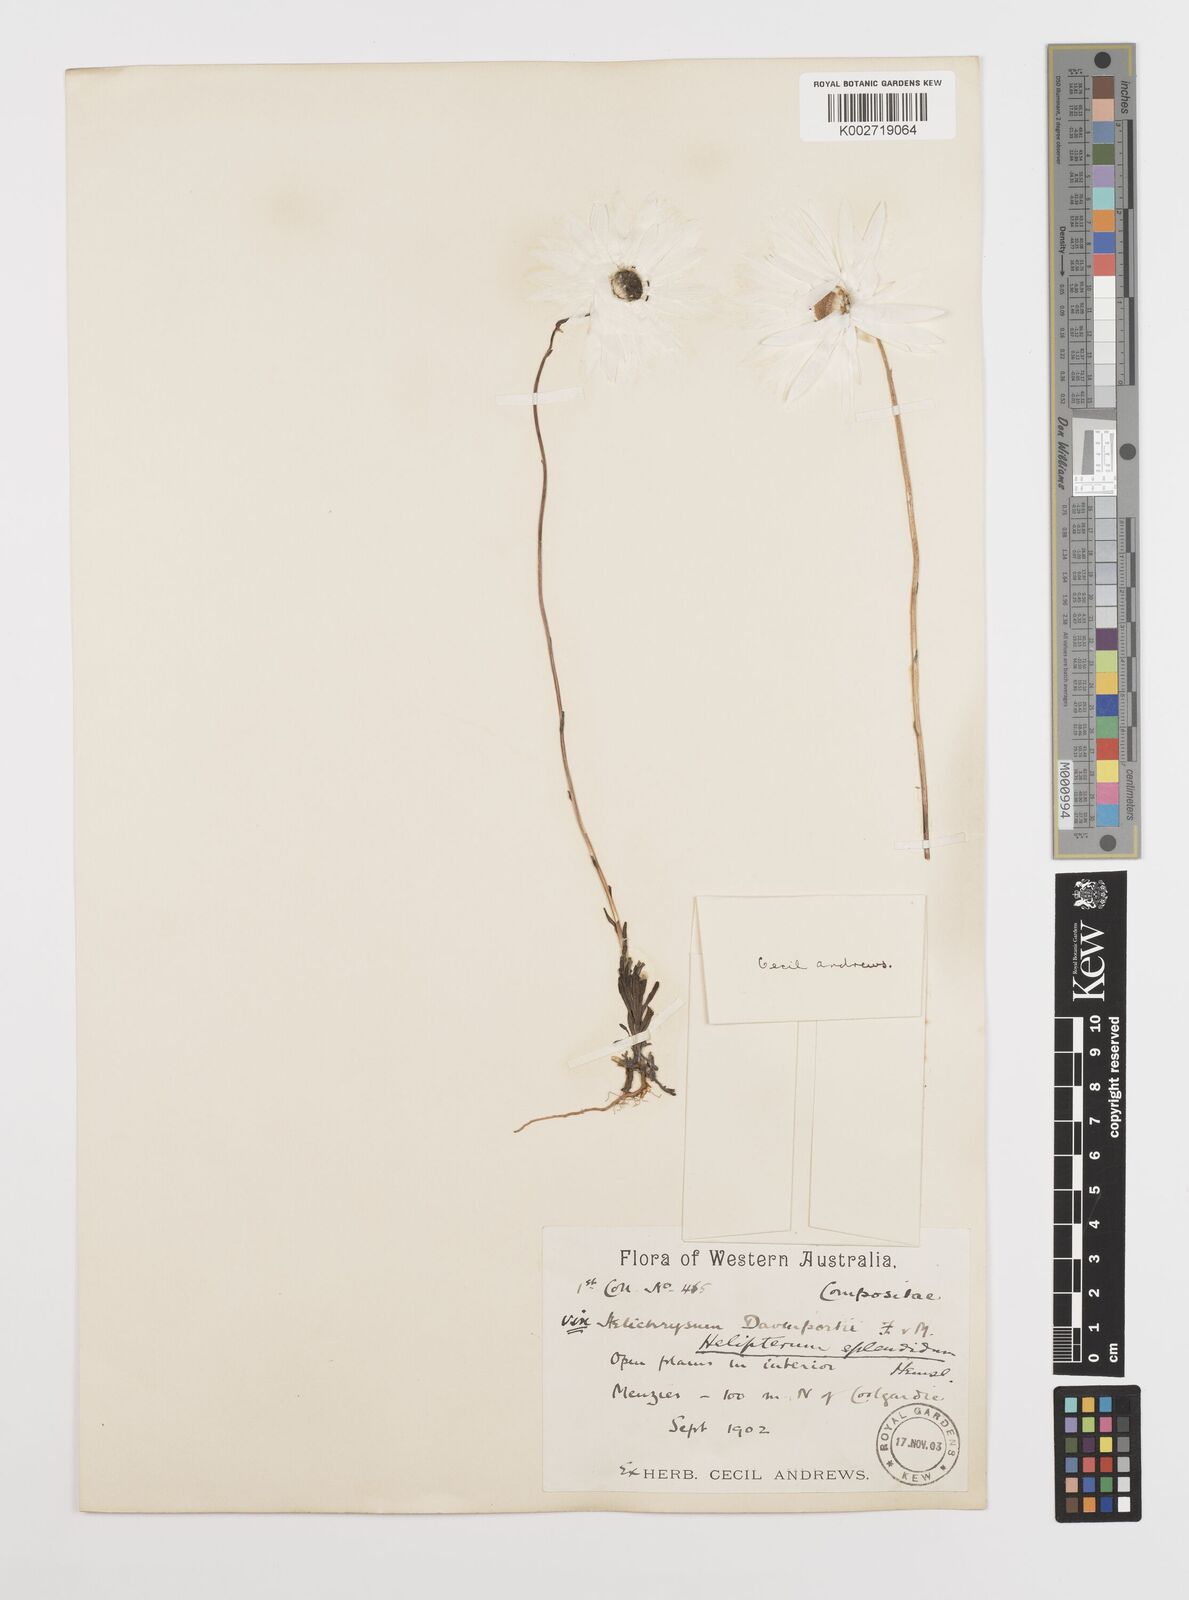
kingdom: Plantae
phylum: Tracheophyta
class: Magnoliopsida
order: Asterales
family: Asteraceae
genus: Rhodanthe
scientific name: Rhodanthe chlorocephala
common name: Rosy sunray
